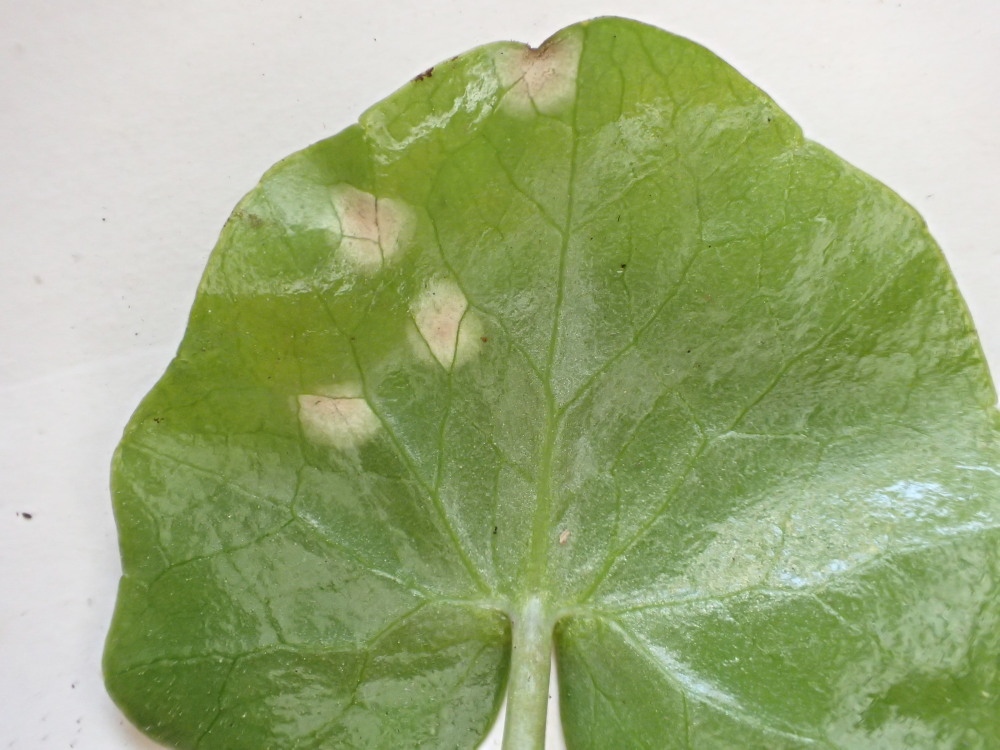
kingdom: Fungi
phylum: Basidiomycota
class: Exobasidiomycetes
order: Entylomatales
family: Entylomataceae
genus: Entyloma
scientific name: Entyloma ficariae
